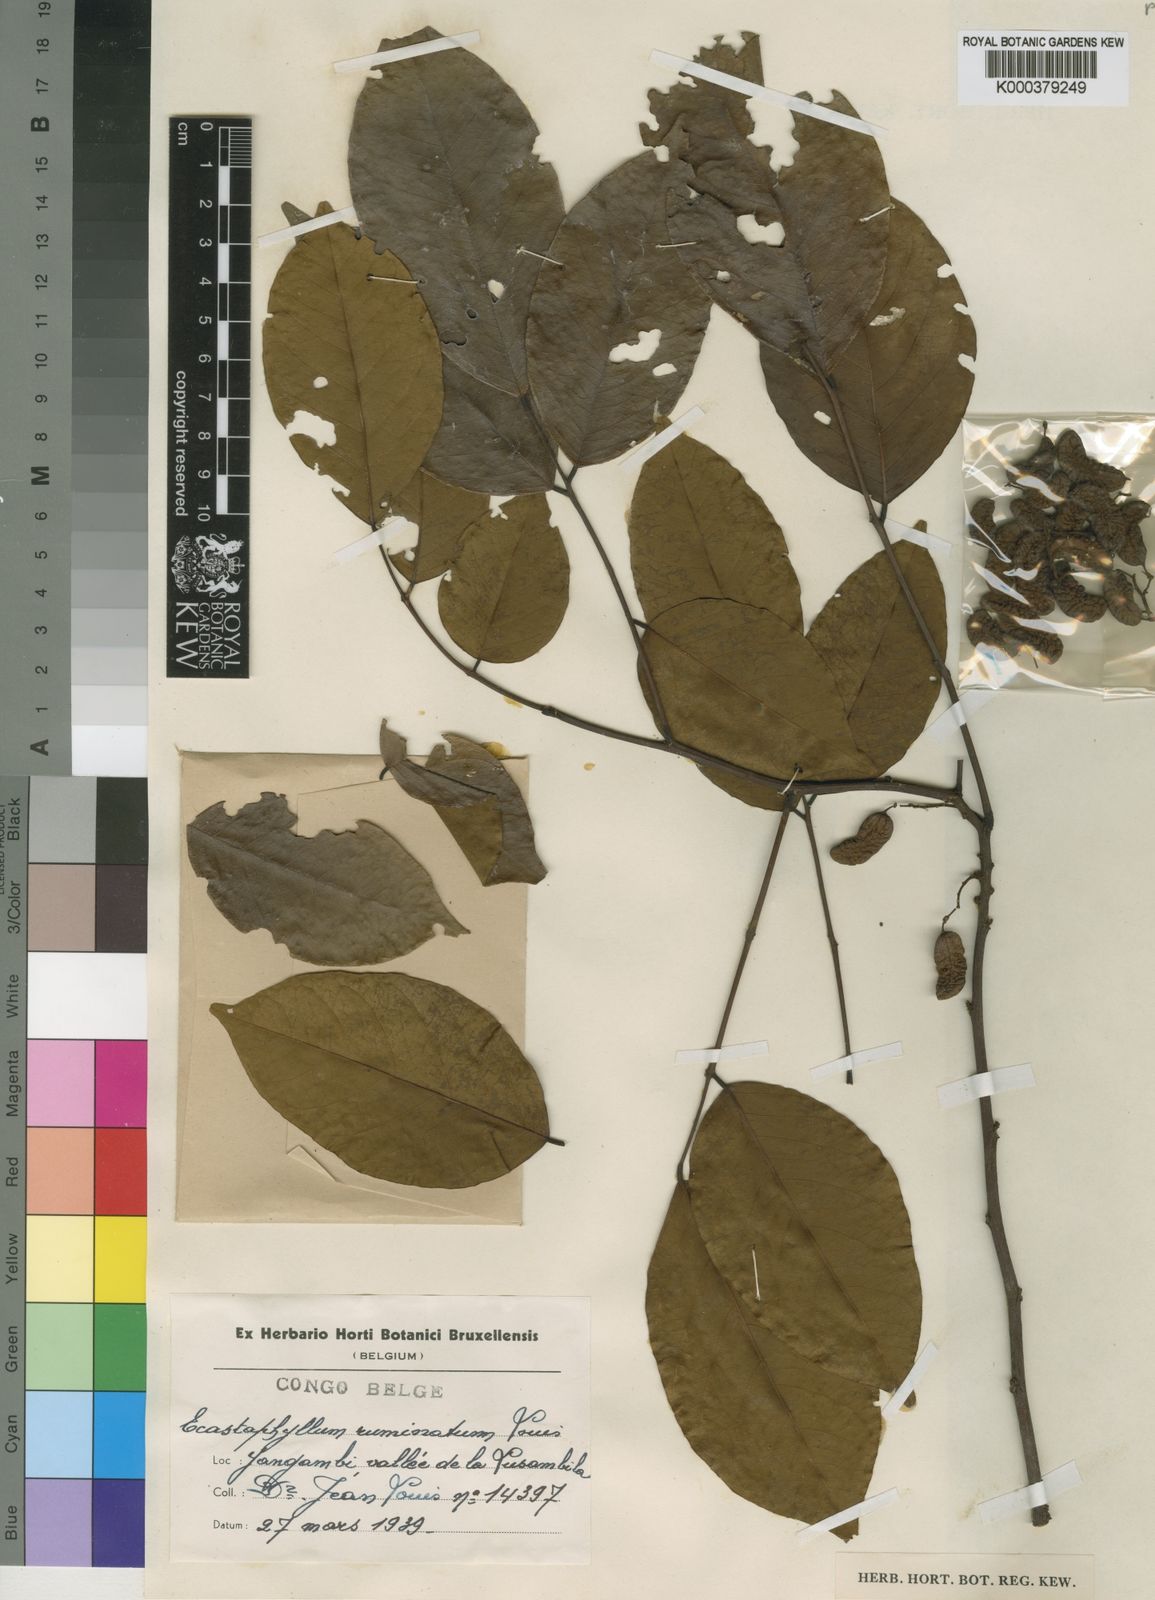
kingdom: Plantae
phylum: Tracheophyta
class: Magnoliopsida
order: Fabales
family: Fabaceae
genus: Dalbergia
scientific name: Dalbergia ngounyensis
